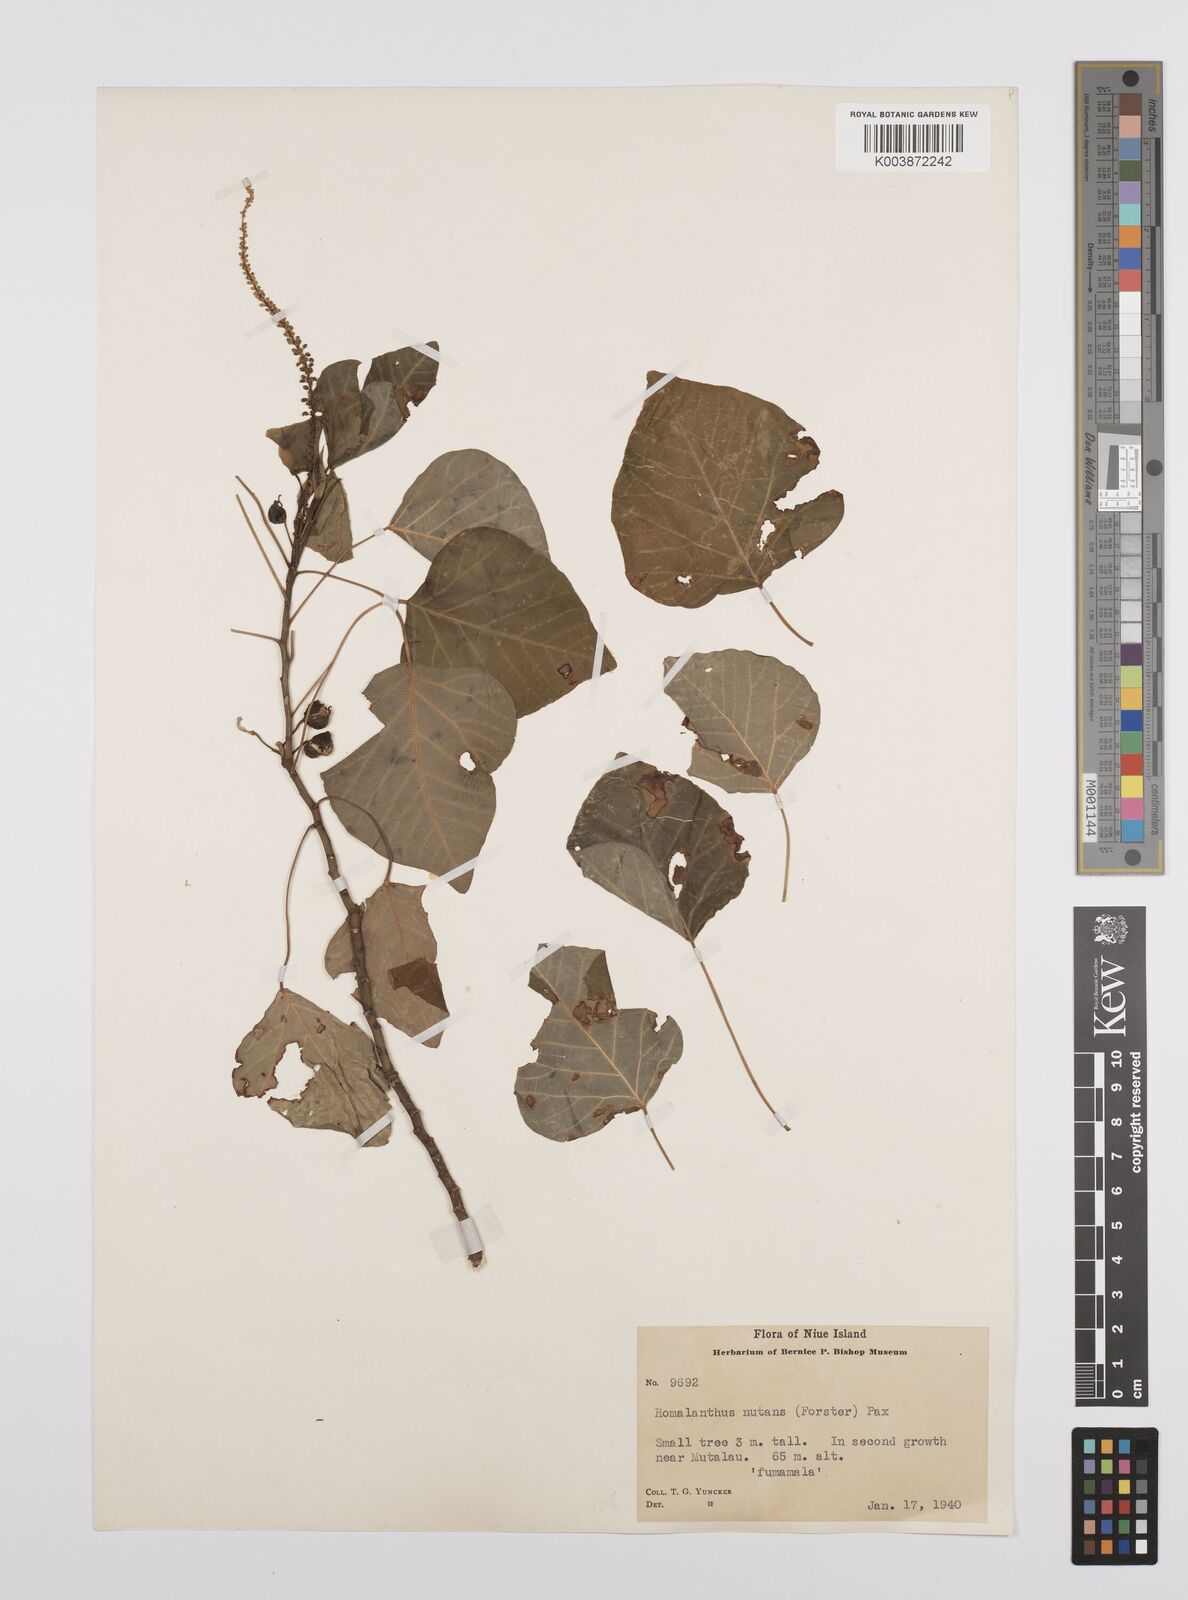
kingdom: Plantae
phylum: Tracheophyta
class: Magnoliopsida
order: Malpighiales
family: Euphorbiaceae
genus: Homalanthus
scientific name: Homalanthus nutans
